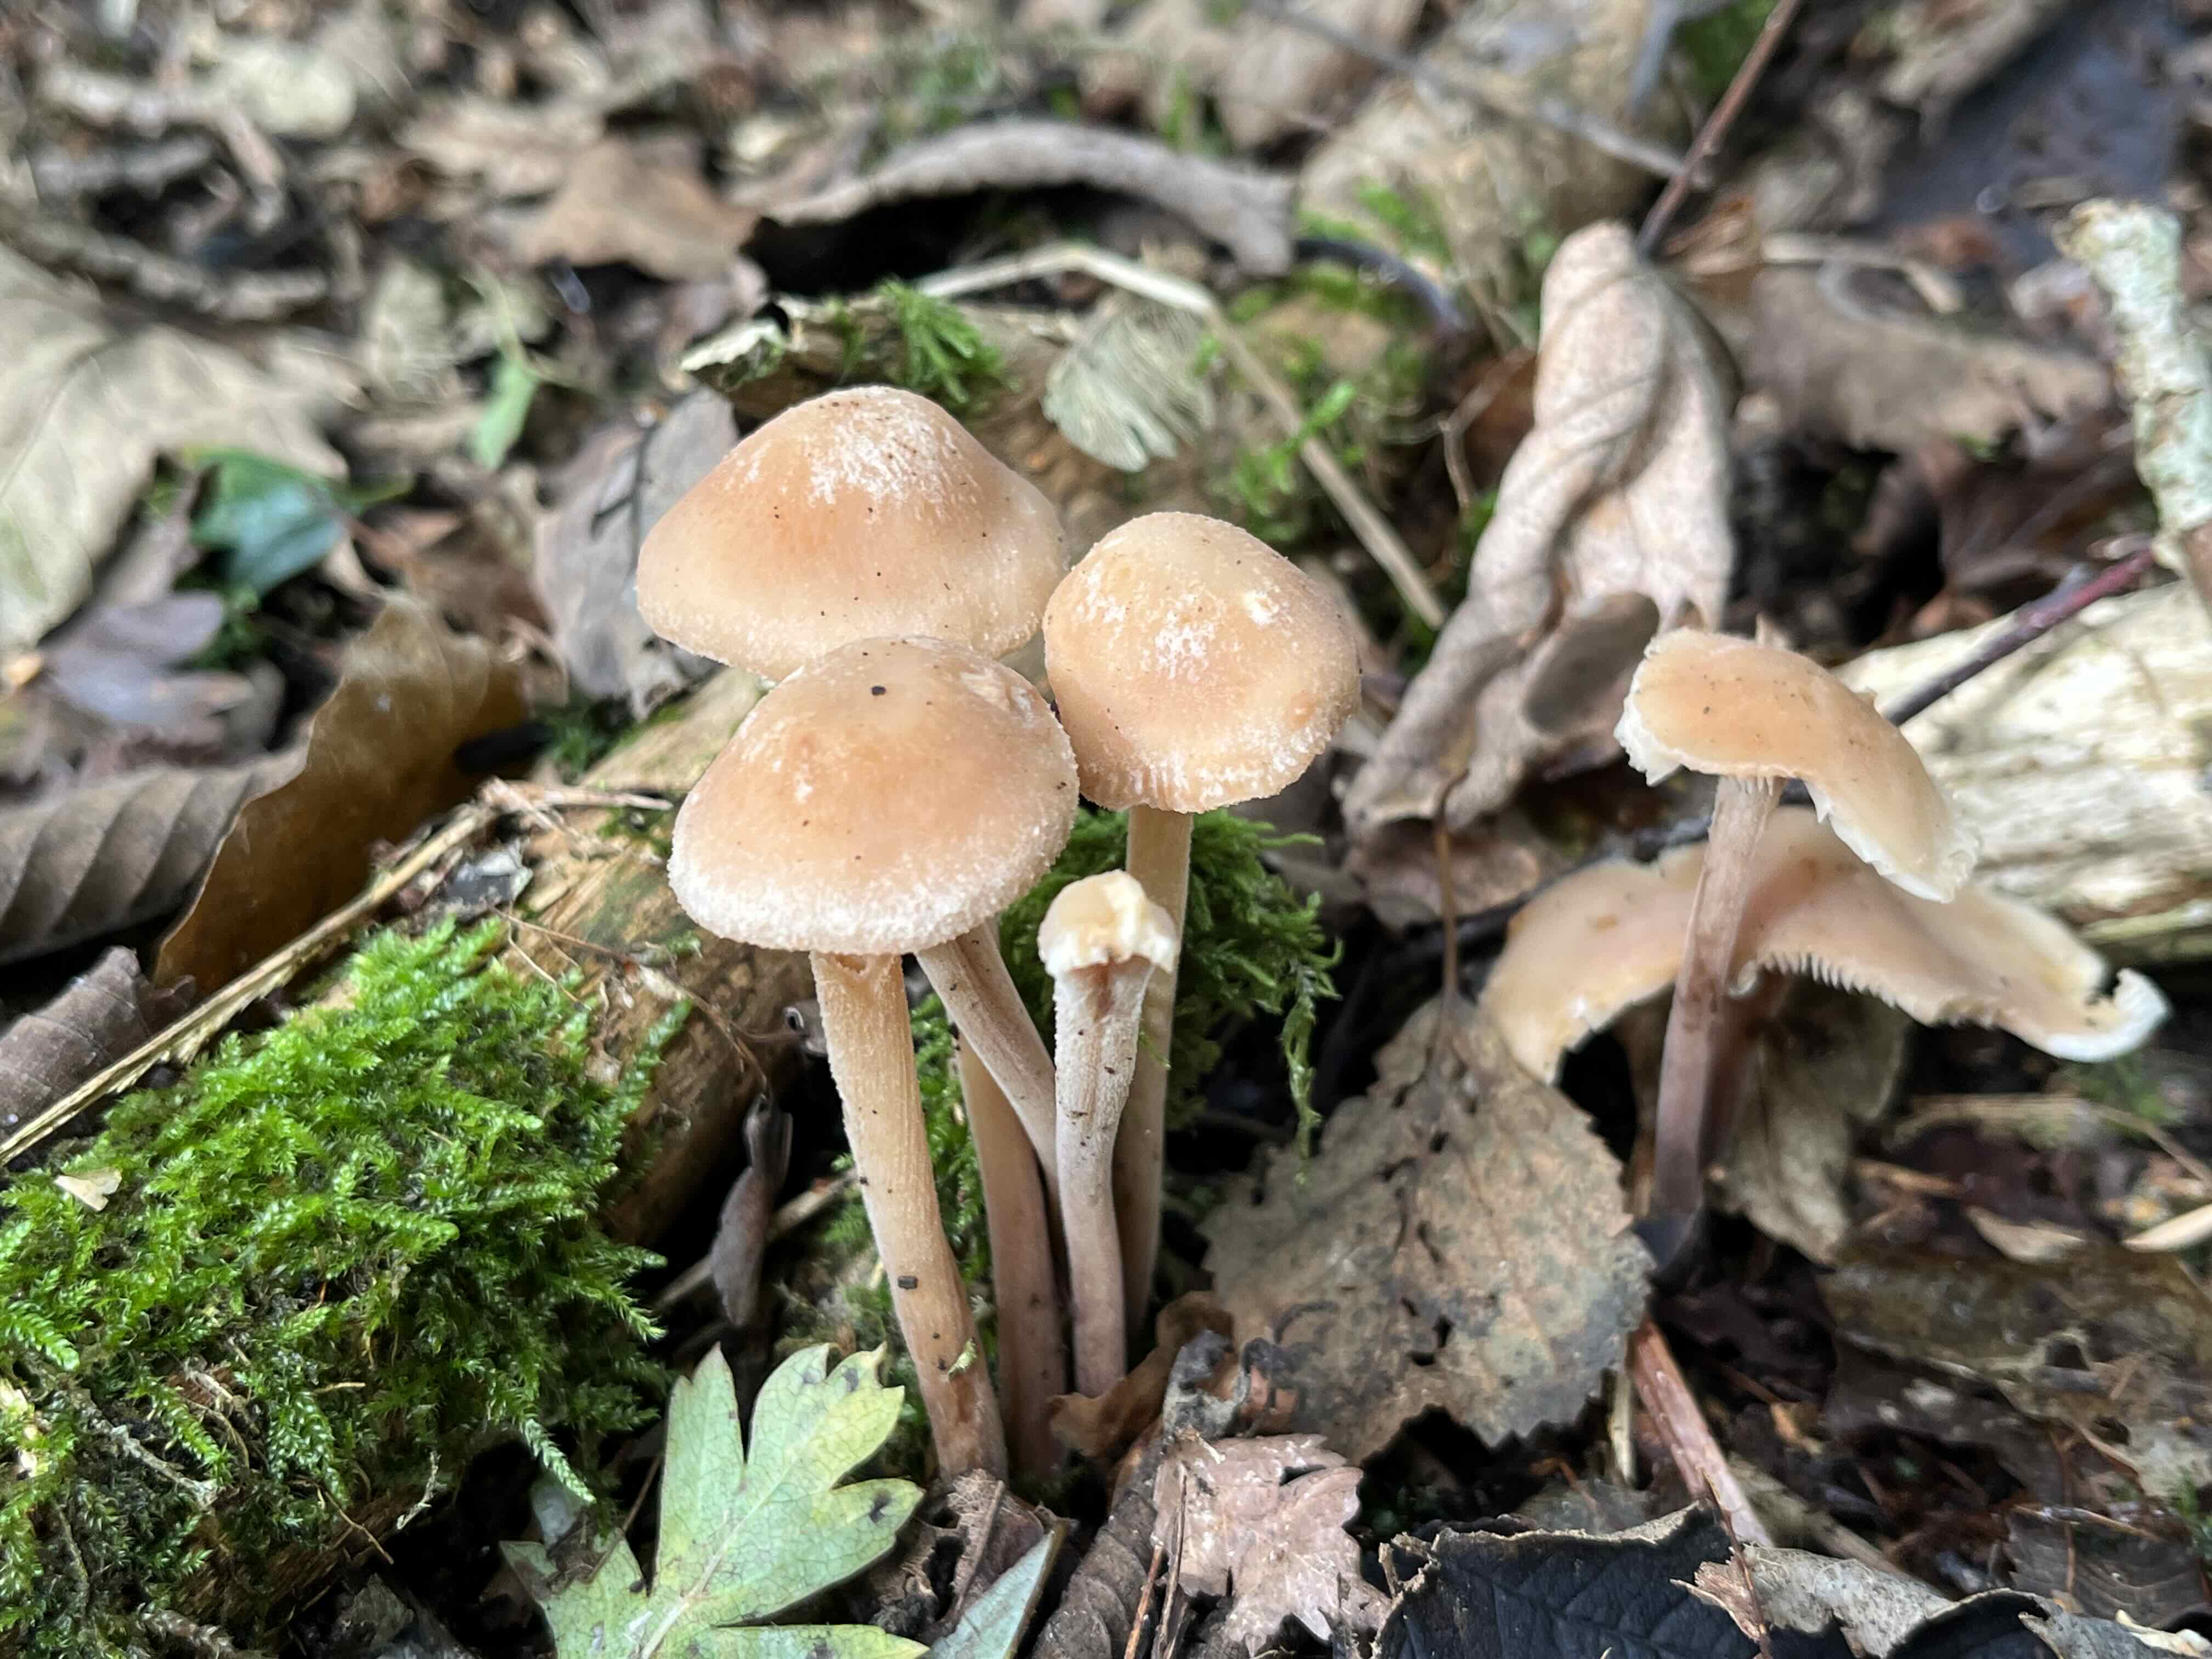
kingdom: Fungi
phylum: Basidiomycota
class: Agaricomycetes
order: Agaricales
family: Omphalotaceae
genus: Collybiopsis
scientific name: Collybiopsis confluens
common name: knippe-fladhat
